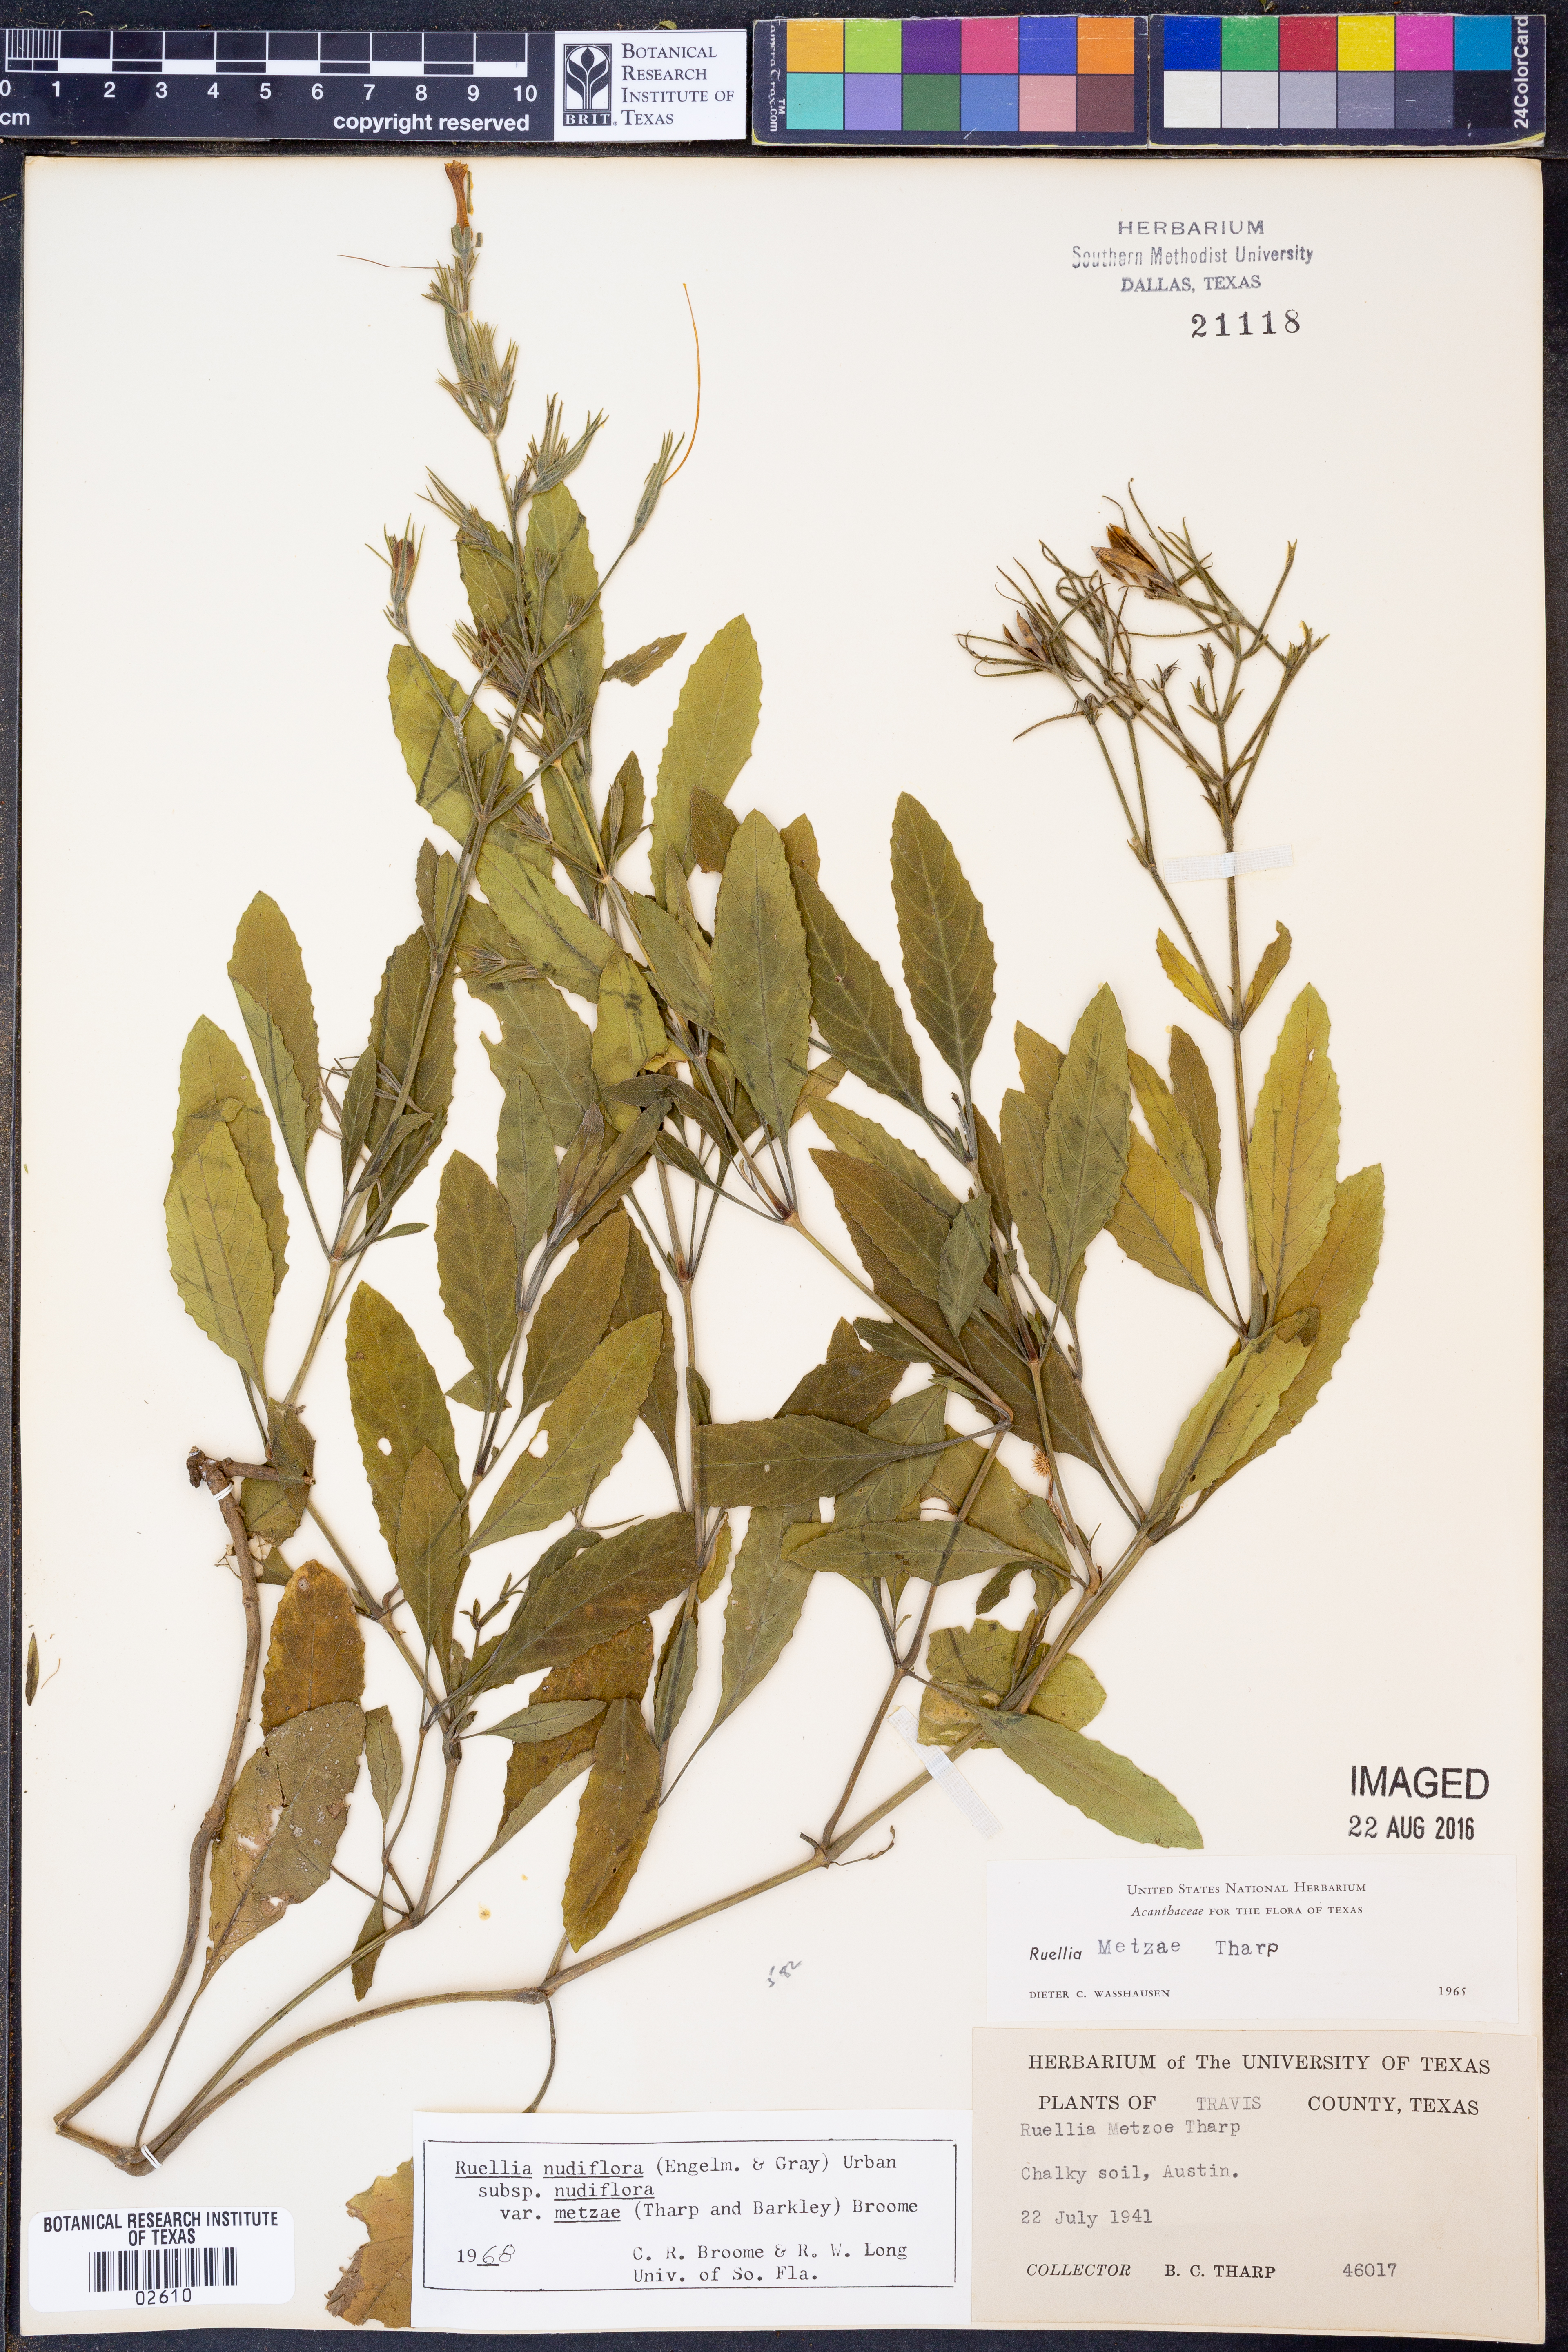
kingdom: Plantae
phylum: Tracheophyta
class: Magnoliopsida
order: Lamiales
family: Acanthaceae
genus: Ruellia
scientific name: Ruellia ciliatiflora
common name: Hairyflower wild petunia
